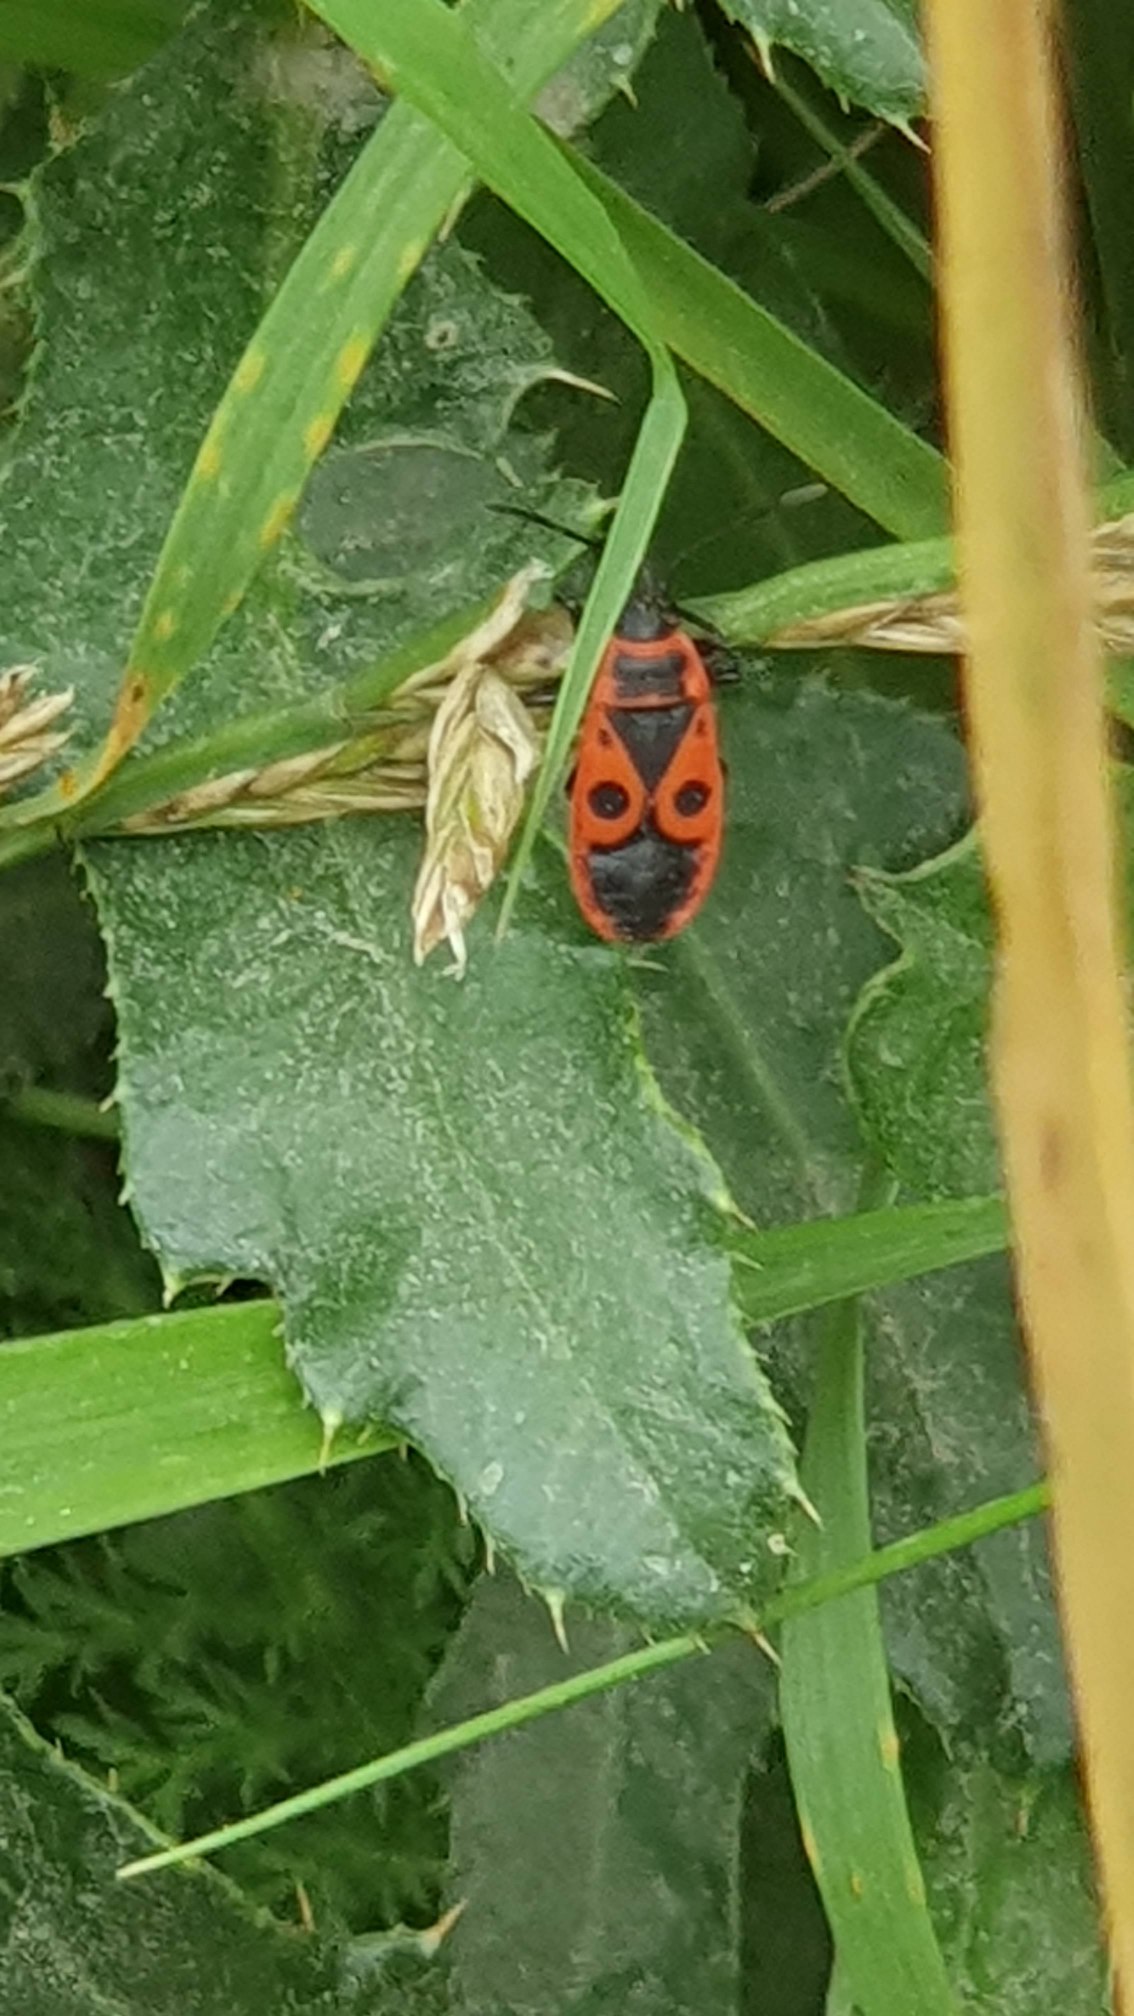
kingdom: Animalia
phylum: Arthropoda
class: Insecta
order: Hemiptera
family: Pyrrhocoridae
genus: Pyrrhocoris
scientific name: Pyrrhocoris apterus
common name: Ildtæge
